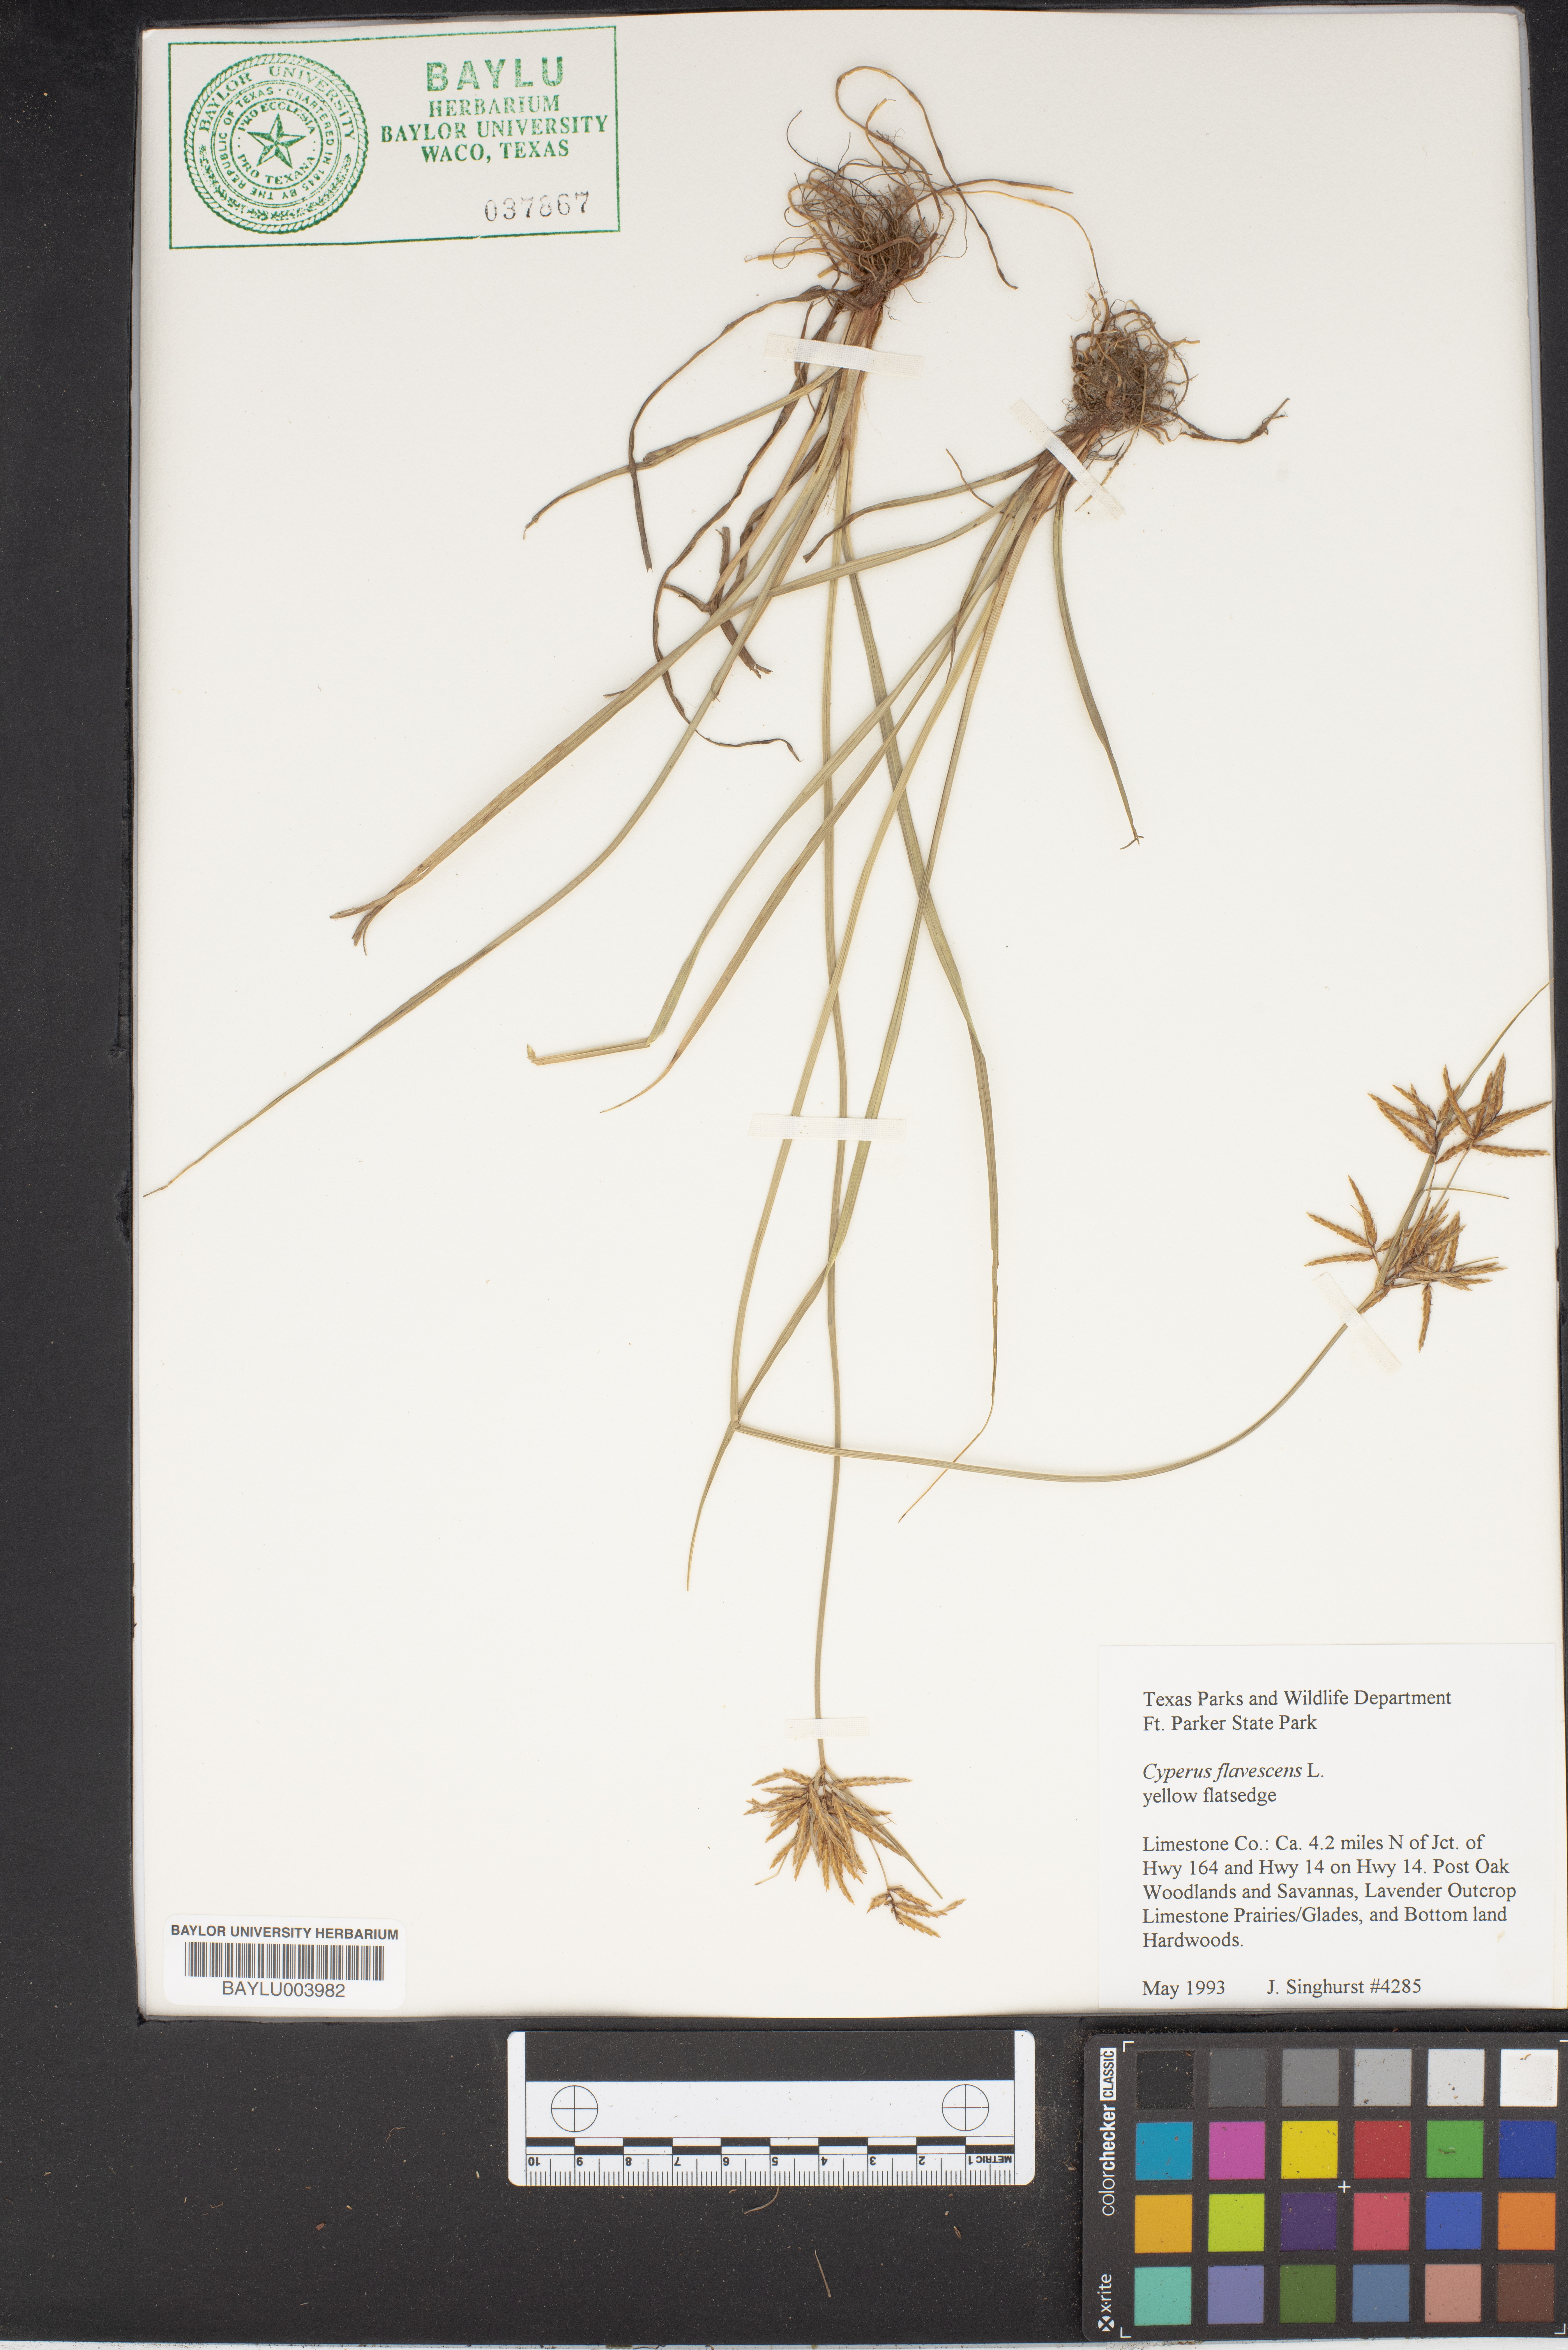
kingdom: Plantae
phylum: Tracheophyta
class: Liliopsida
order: Poales
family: Cyperaceae
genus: Cyperus
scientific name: Cyperus flavescens
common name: Yellow galingale
